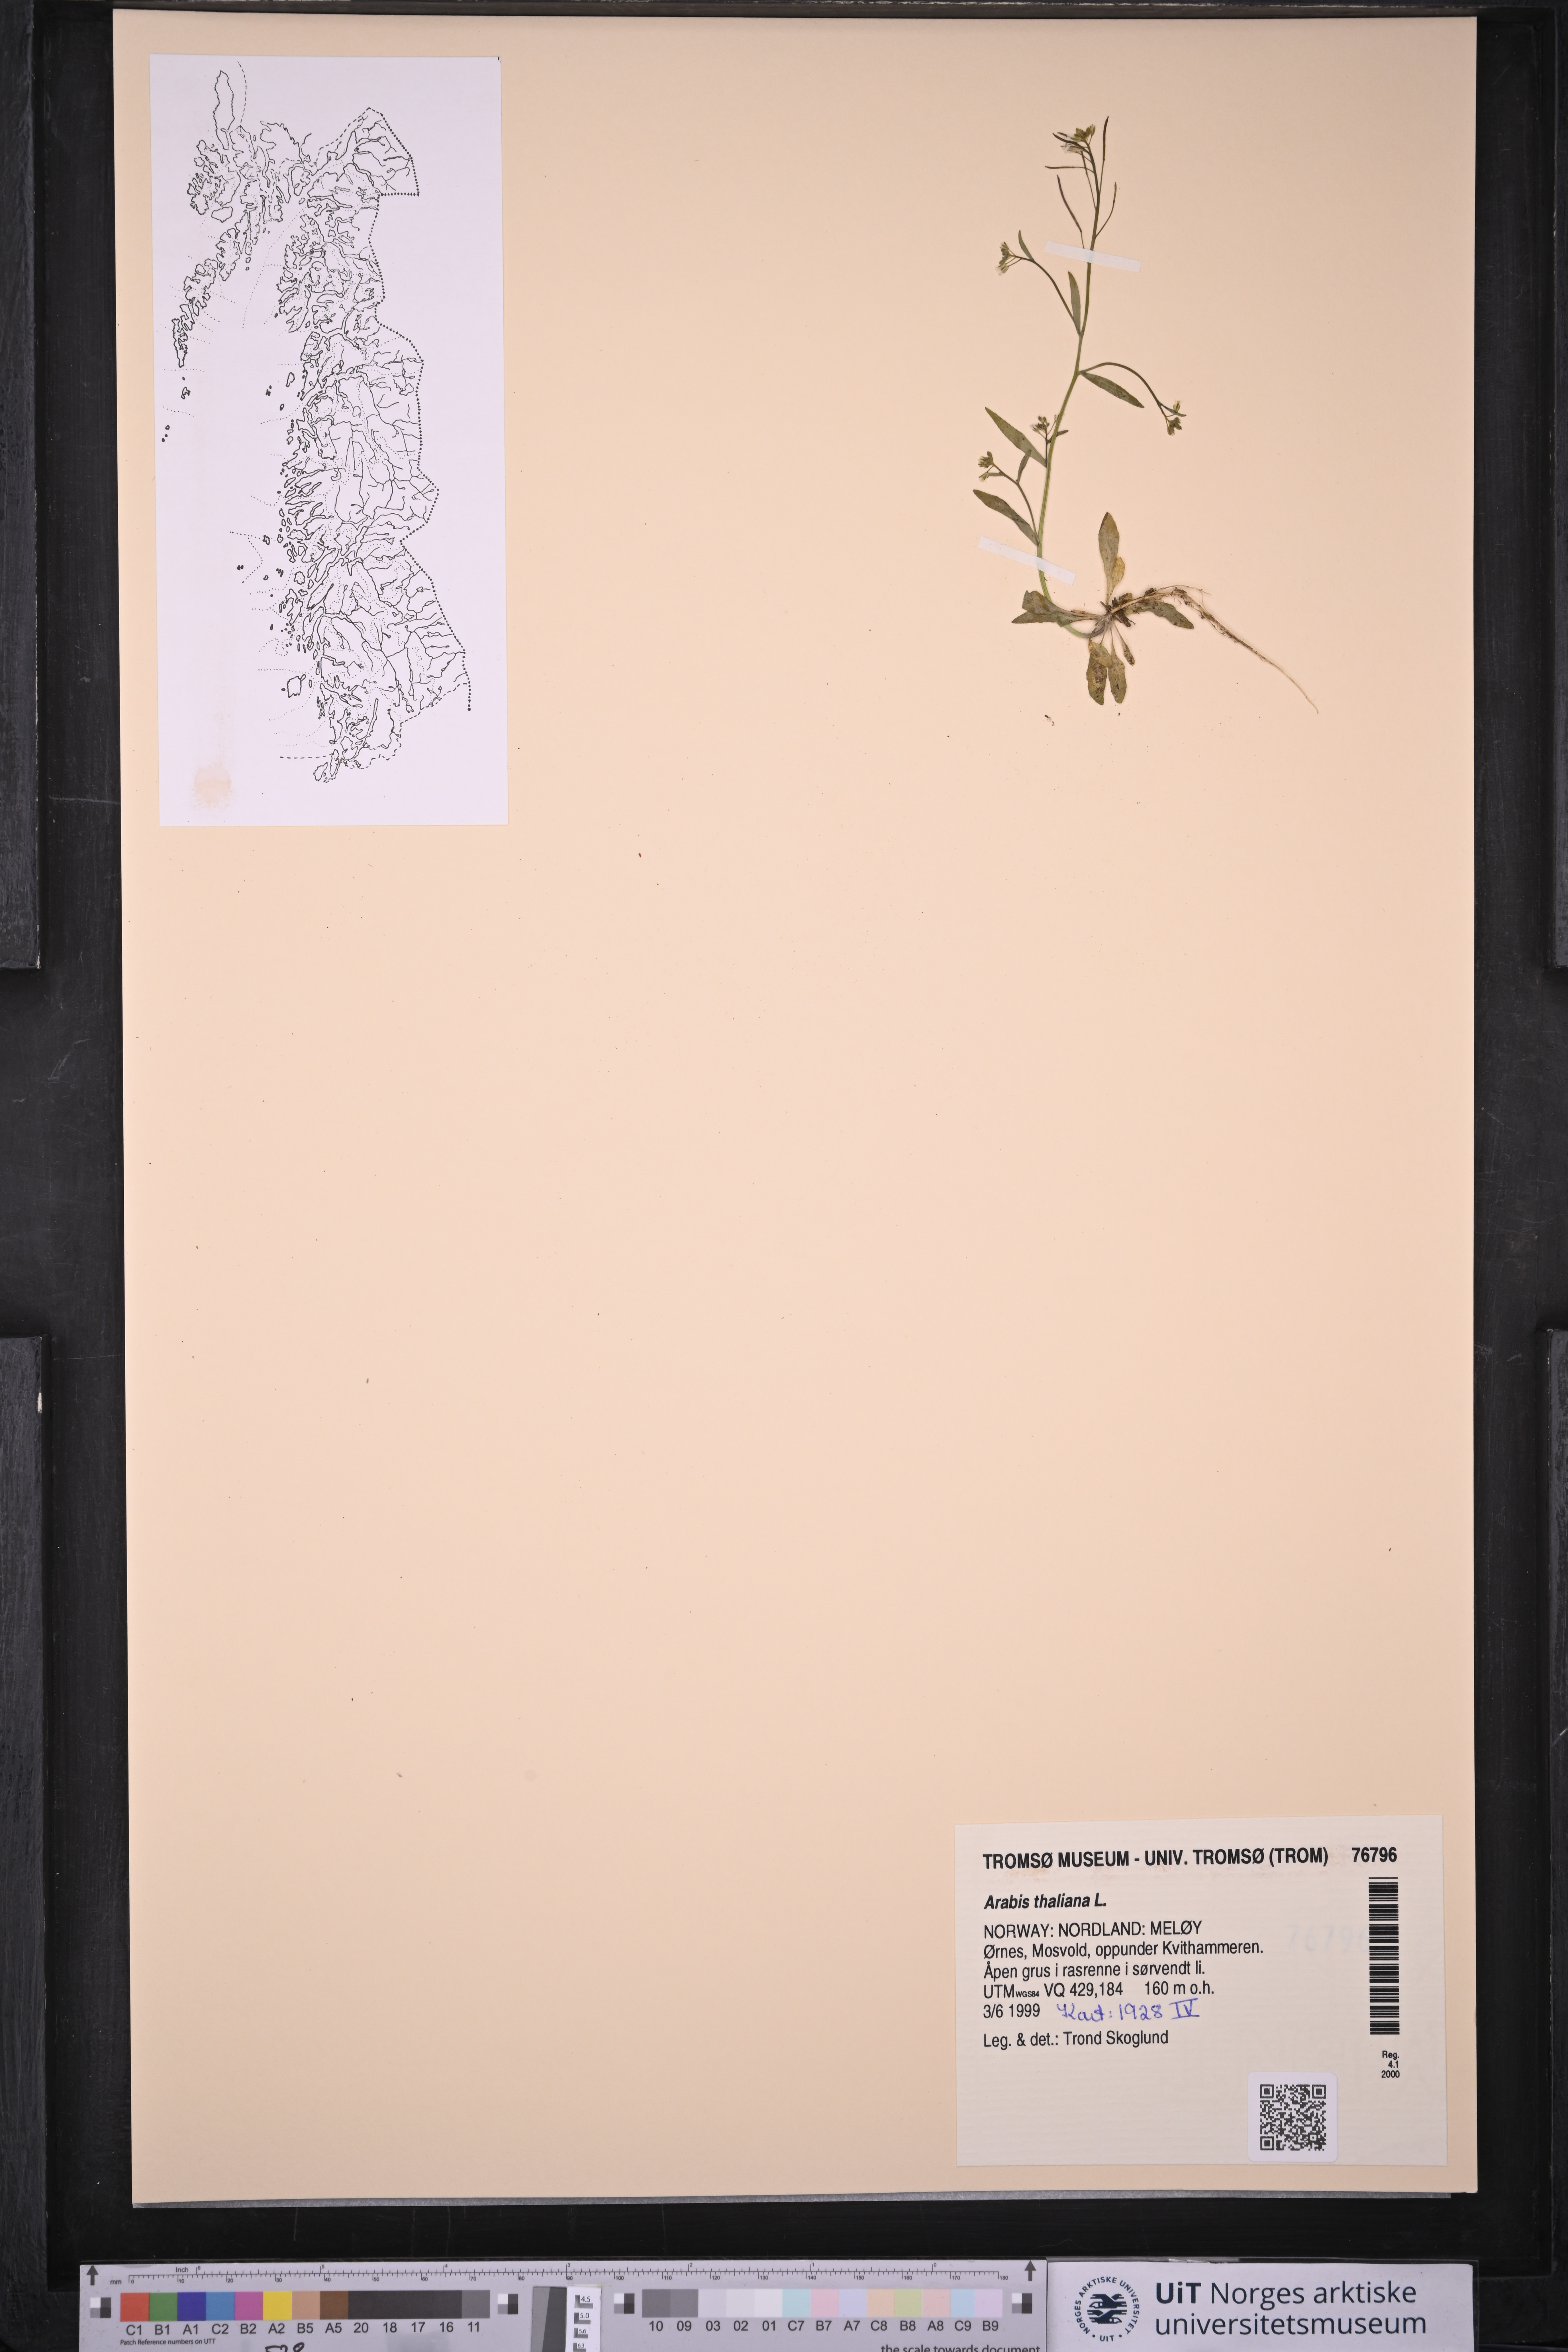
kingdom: Plantae
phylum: Tracheophyta
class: Magnoliopsida
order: Brassicales
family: Brassicaceae
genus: Arabidopsis
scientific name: Arabidopsis thaliana
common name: Thale cress
